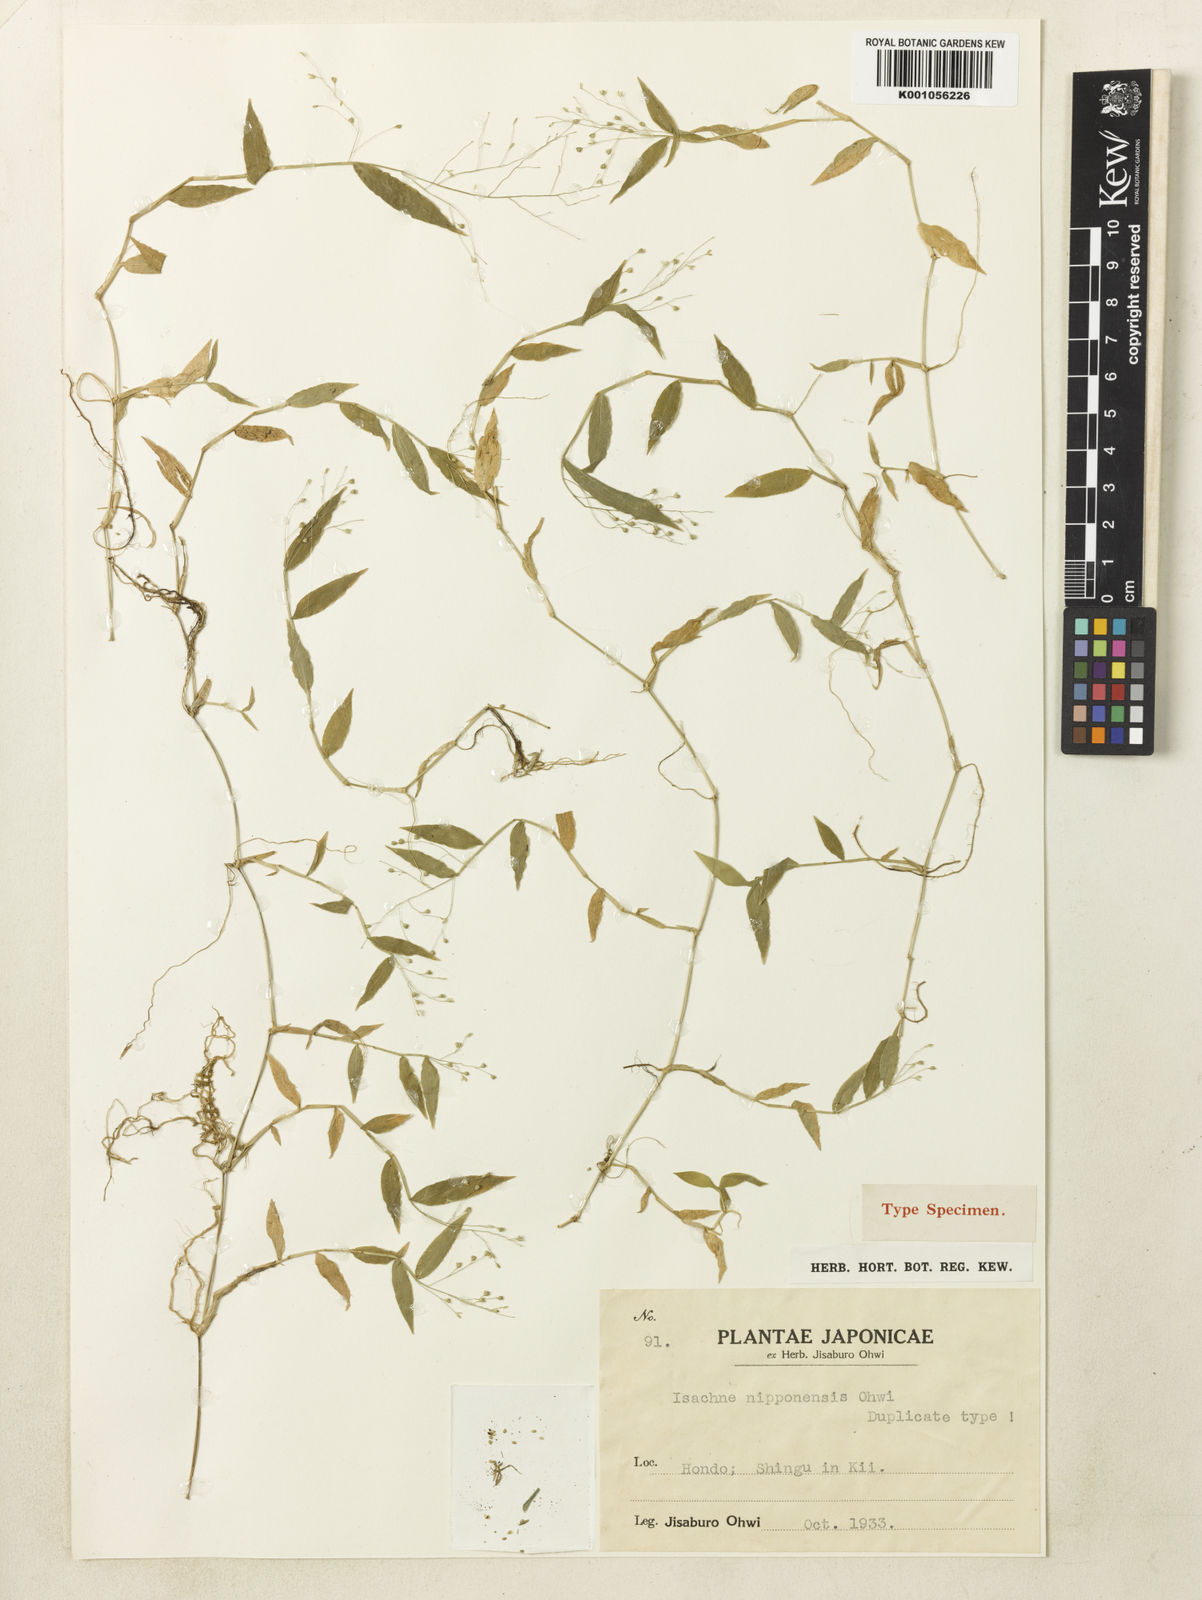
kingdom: Plantae
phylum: Tracheophyta
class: Liliopsida
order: Poales
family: Poaceae
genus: Isachne
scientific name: Isachne nipponensis
